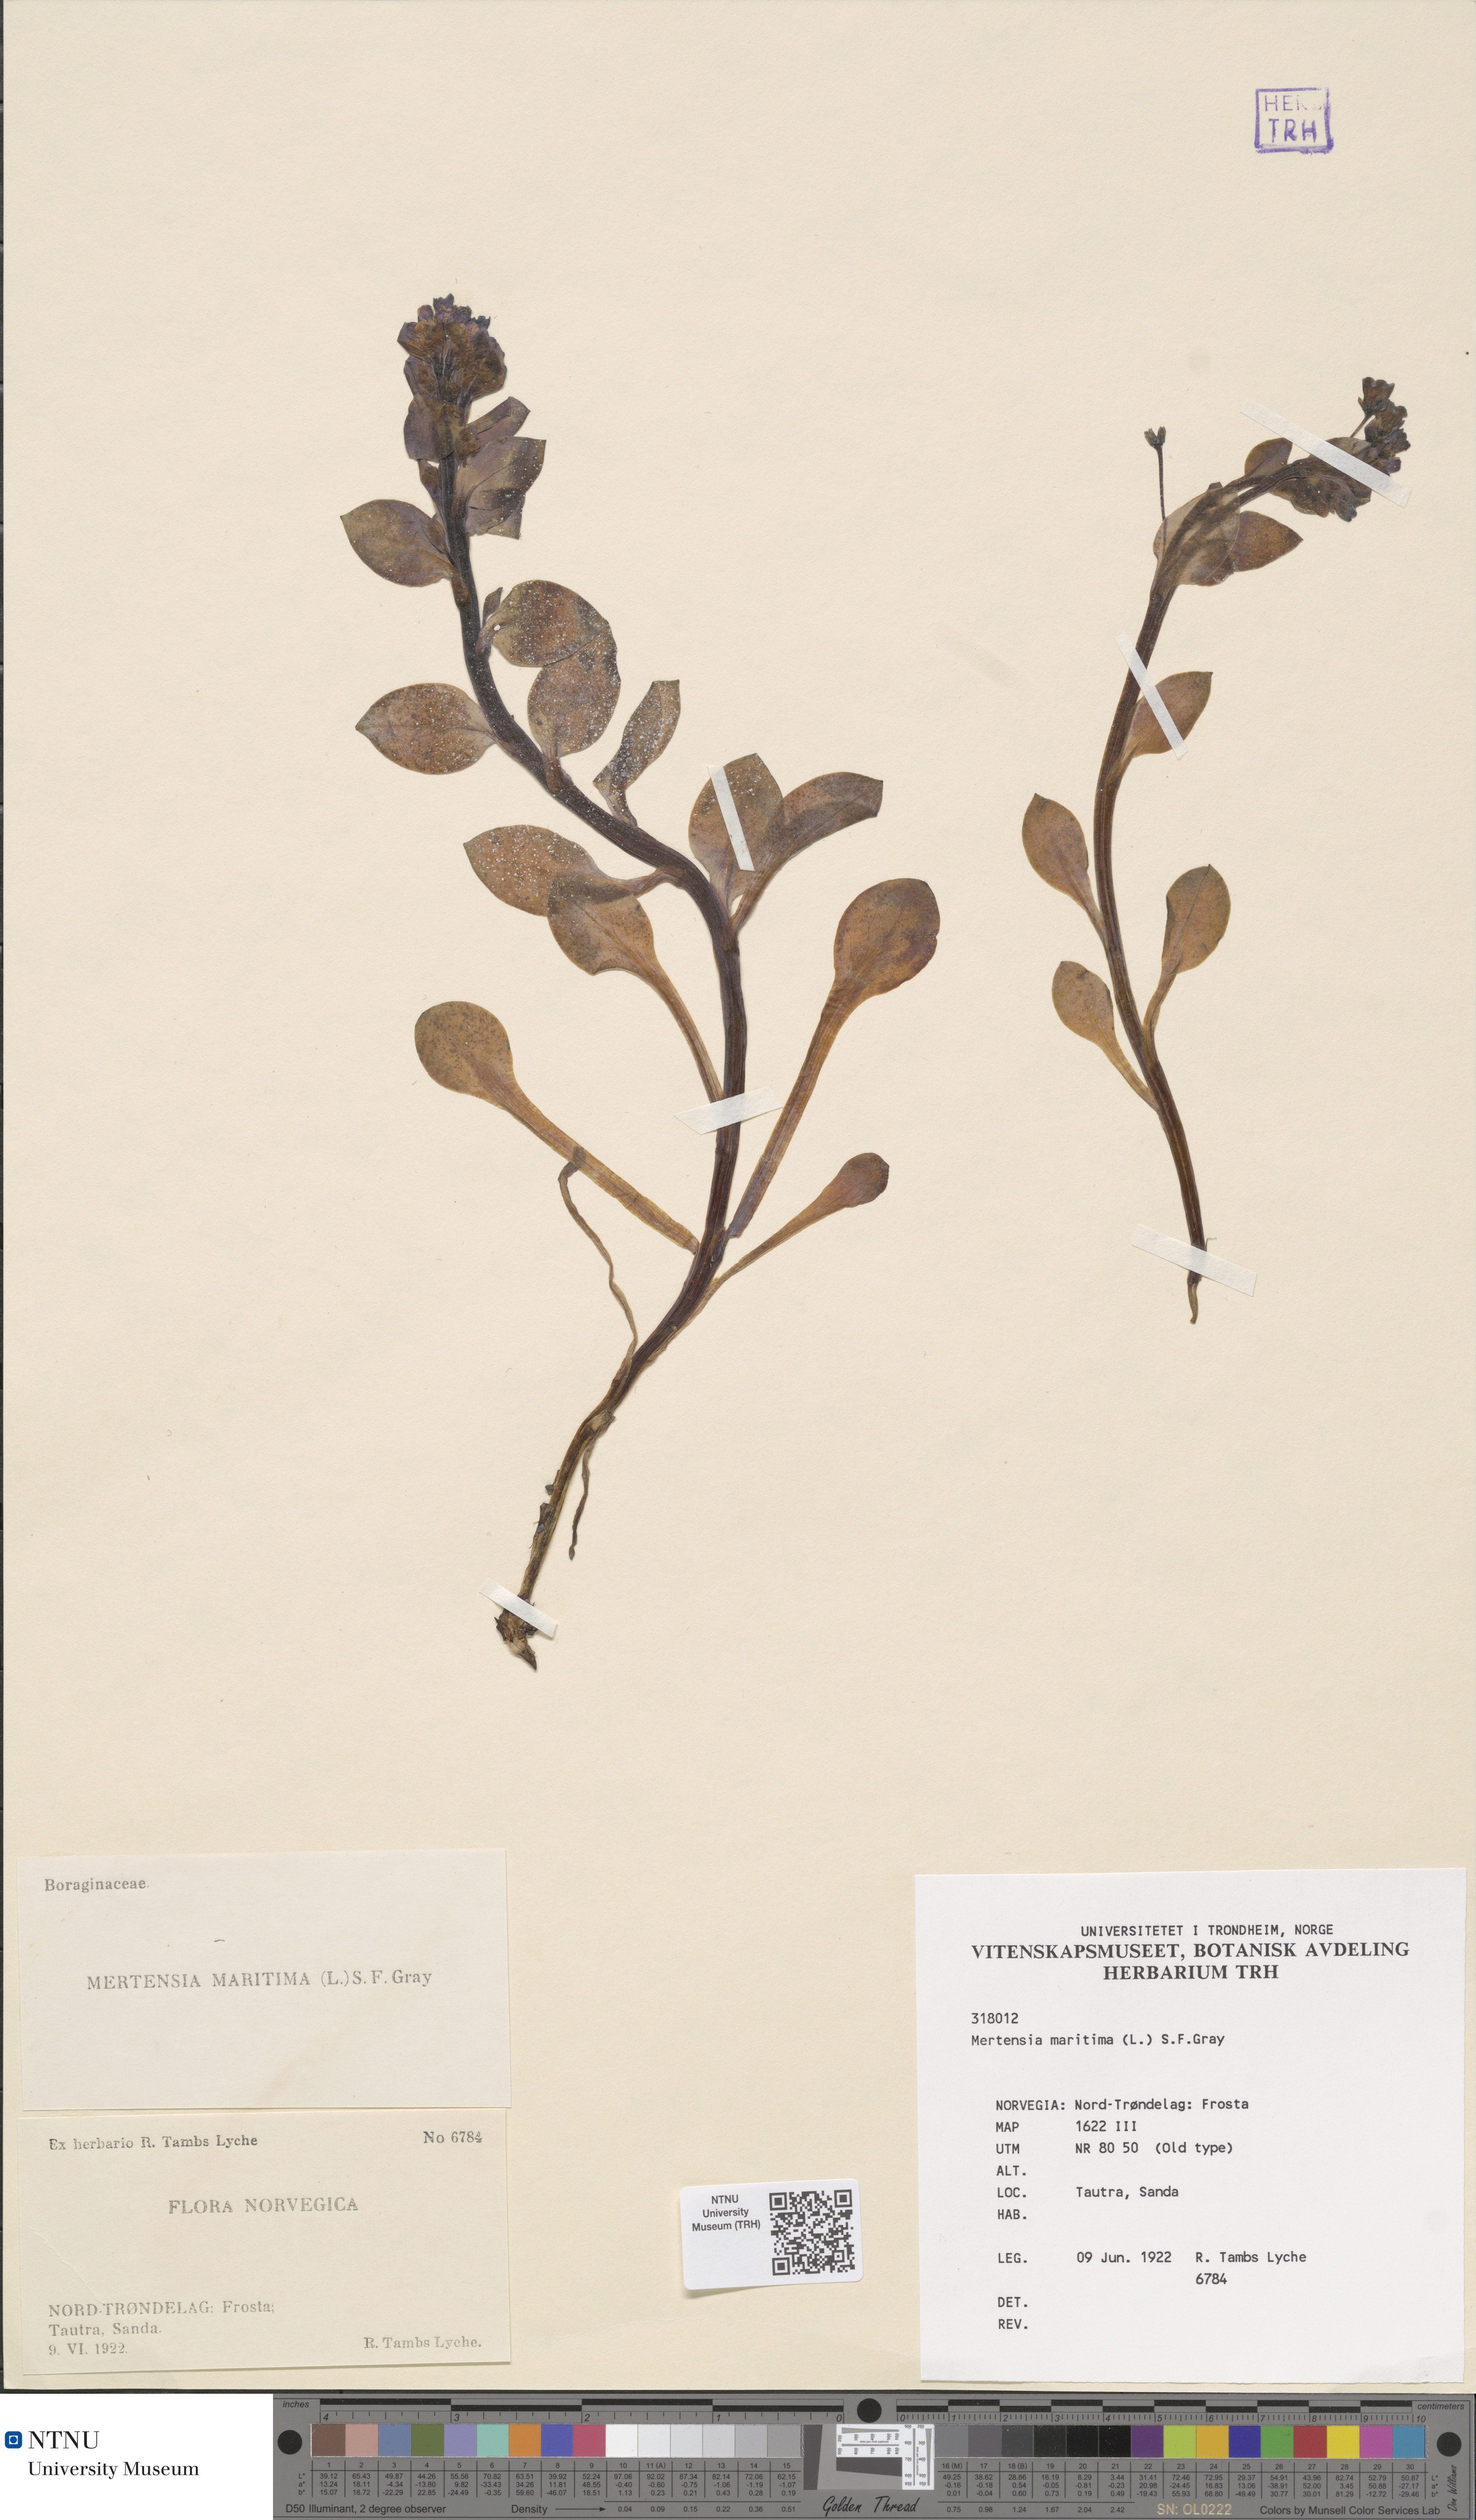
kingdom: Plantae
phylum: Tracheophyta
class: Magnoliopsida
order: Boraginales
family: Boraginaceae
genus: Mertensia
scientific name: Mertensia maritima
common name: Oysterplant
